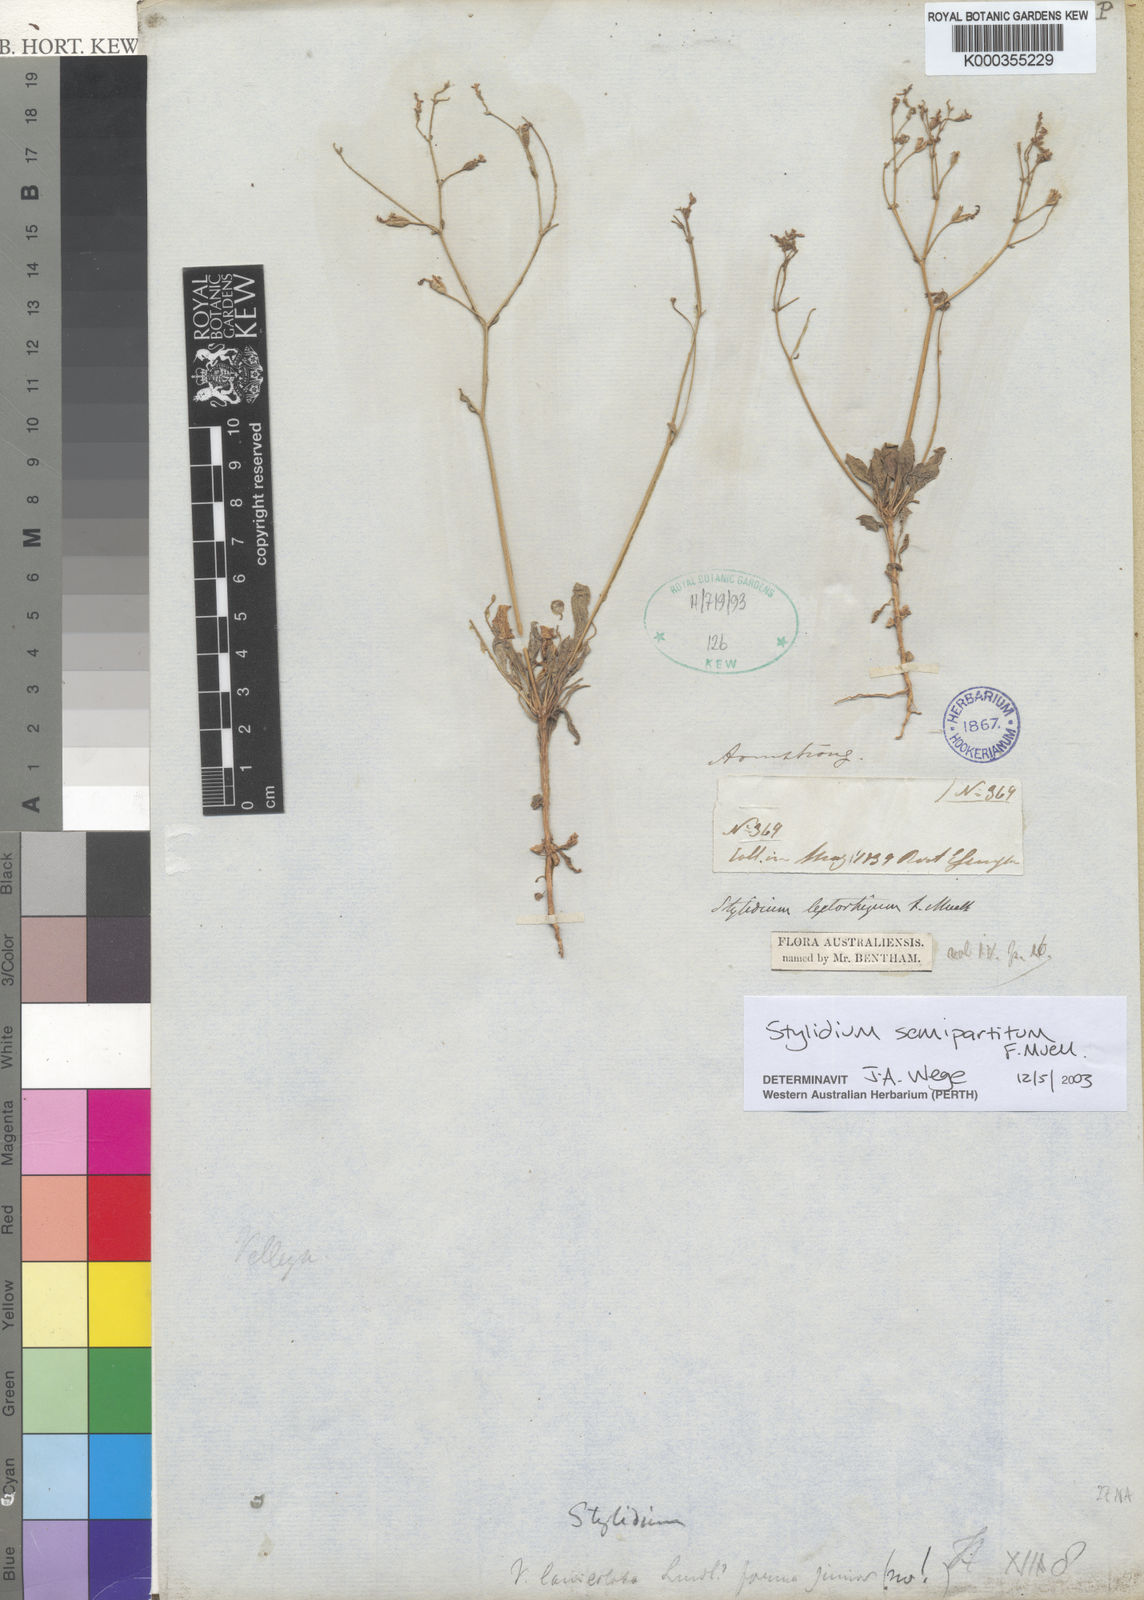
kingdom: Plantae
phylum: Tracheophyta
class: Magnoliopsida
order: Asterales
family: Stylidiaceae
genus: Stylidium
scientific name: Stylidium semipartitum
